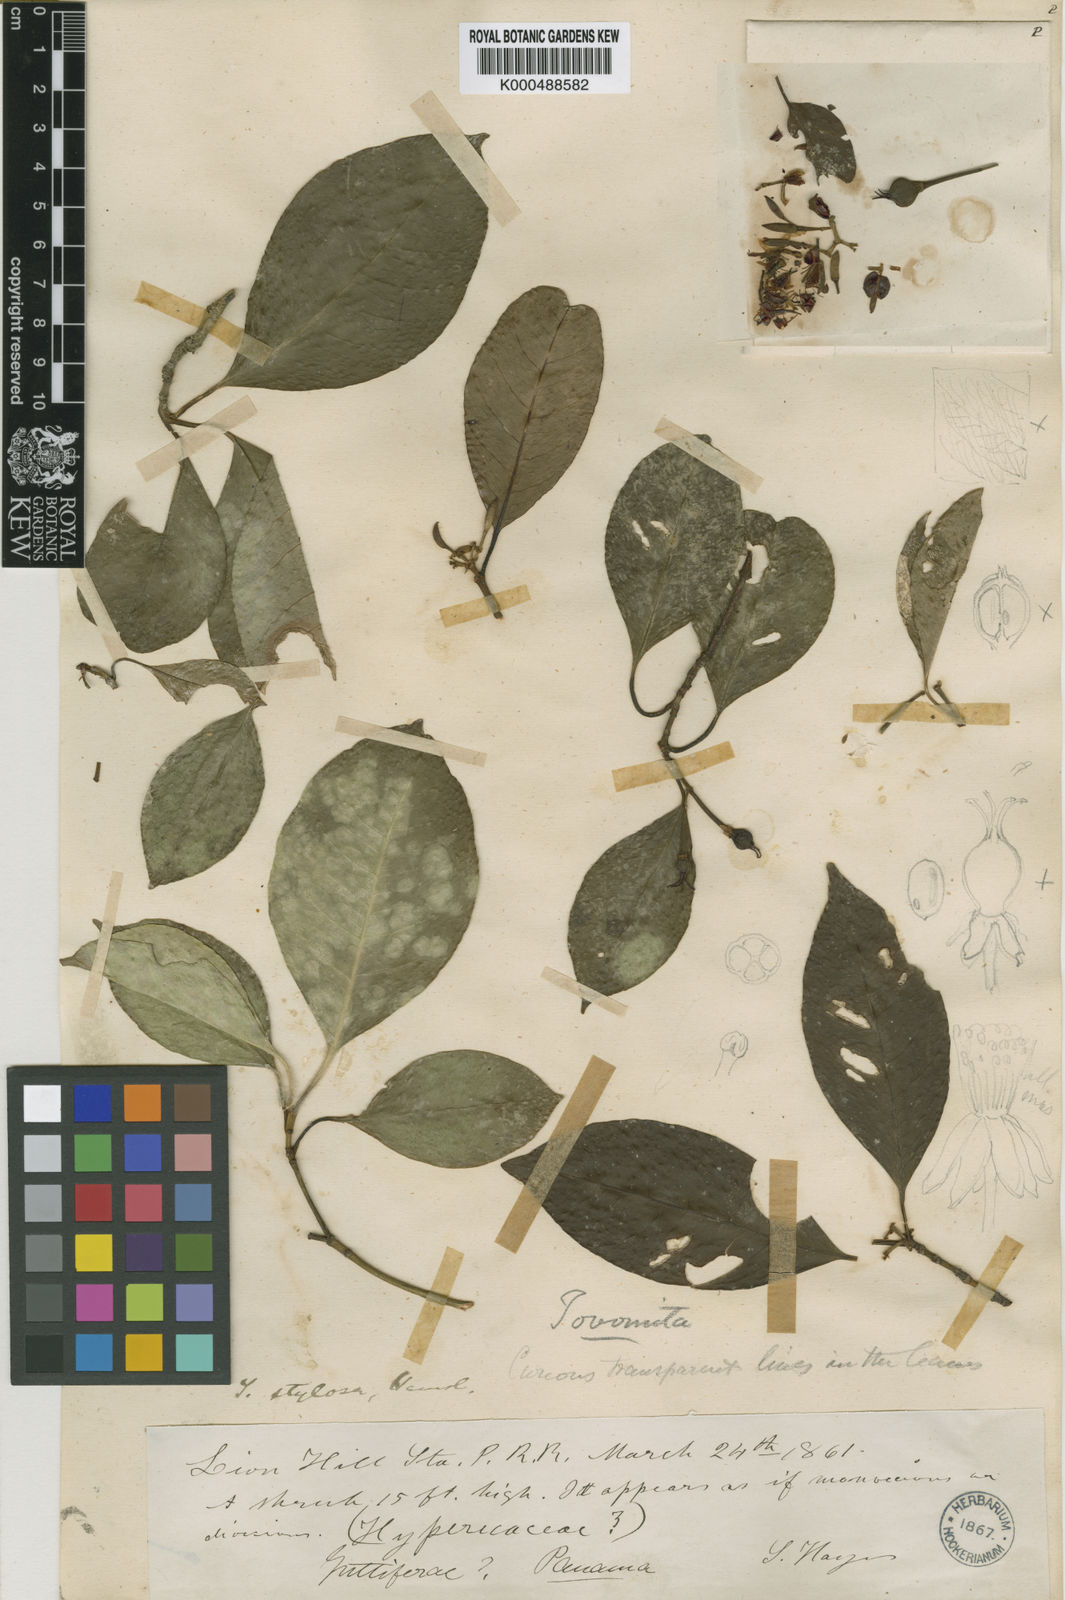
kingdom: Plantae
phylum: Tracheophyta
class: Magnoliopsida
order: Malpighiales
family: Clusiaceae
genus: Tovomita
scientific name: Tovomita stylosa
